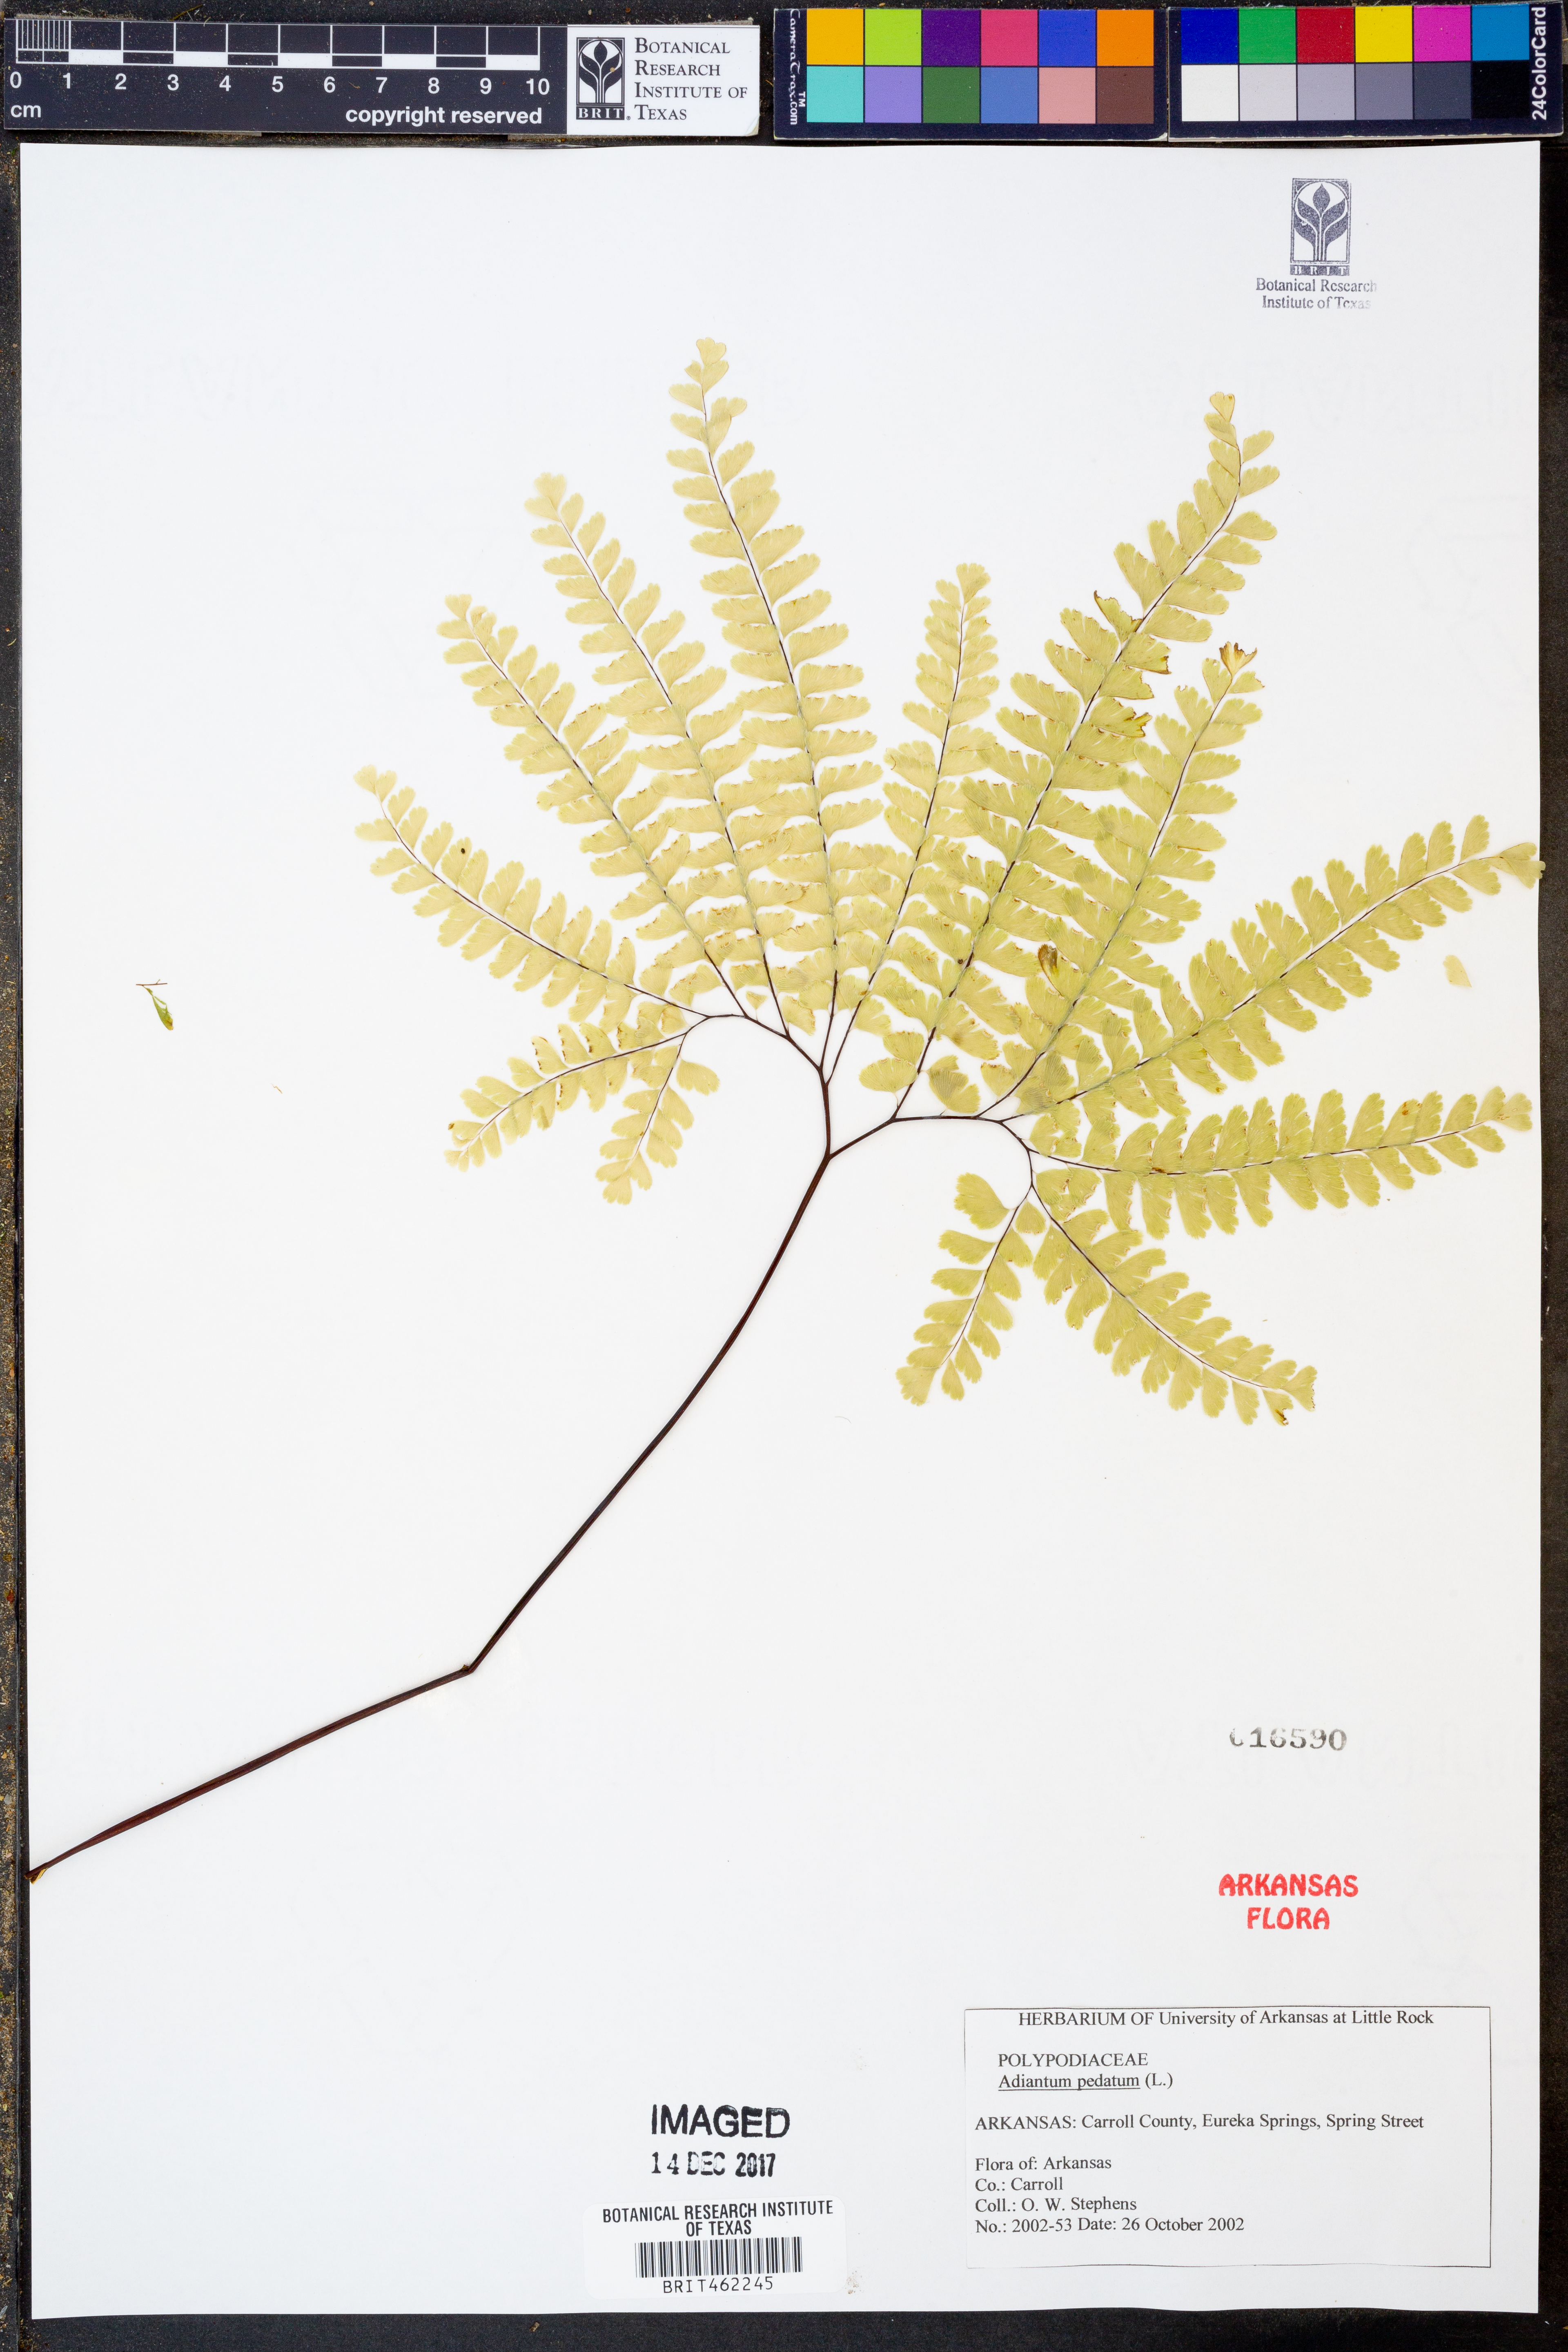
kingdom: Plantae
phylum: Tracheophyta
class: Polypodiopsida
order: Polypodiales
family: Pteridaceae
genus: Adiantum
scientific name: Adiantum pedatum
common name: Five-finger fern
